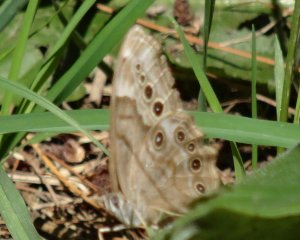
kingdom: Animalia
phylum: Arthropoda
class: Insecta
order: Lepidoptera
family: Nymphalidae
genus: Lethe
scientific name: Lethe anthedon
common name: Northern Pearly-Eye
